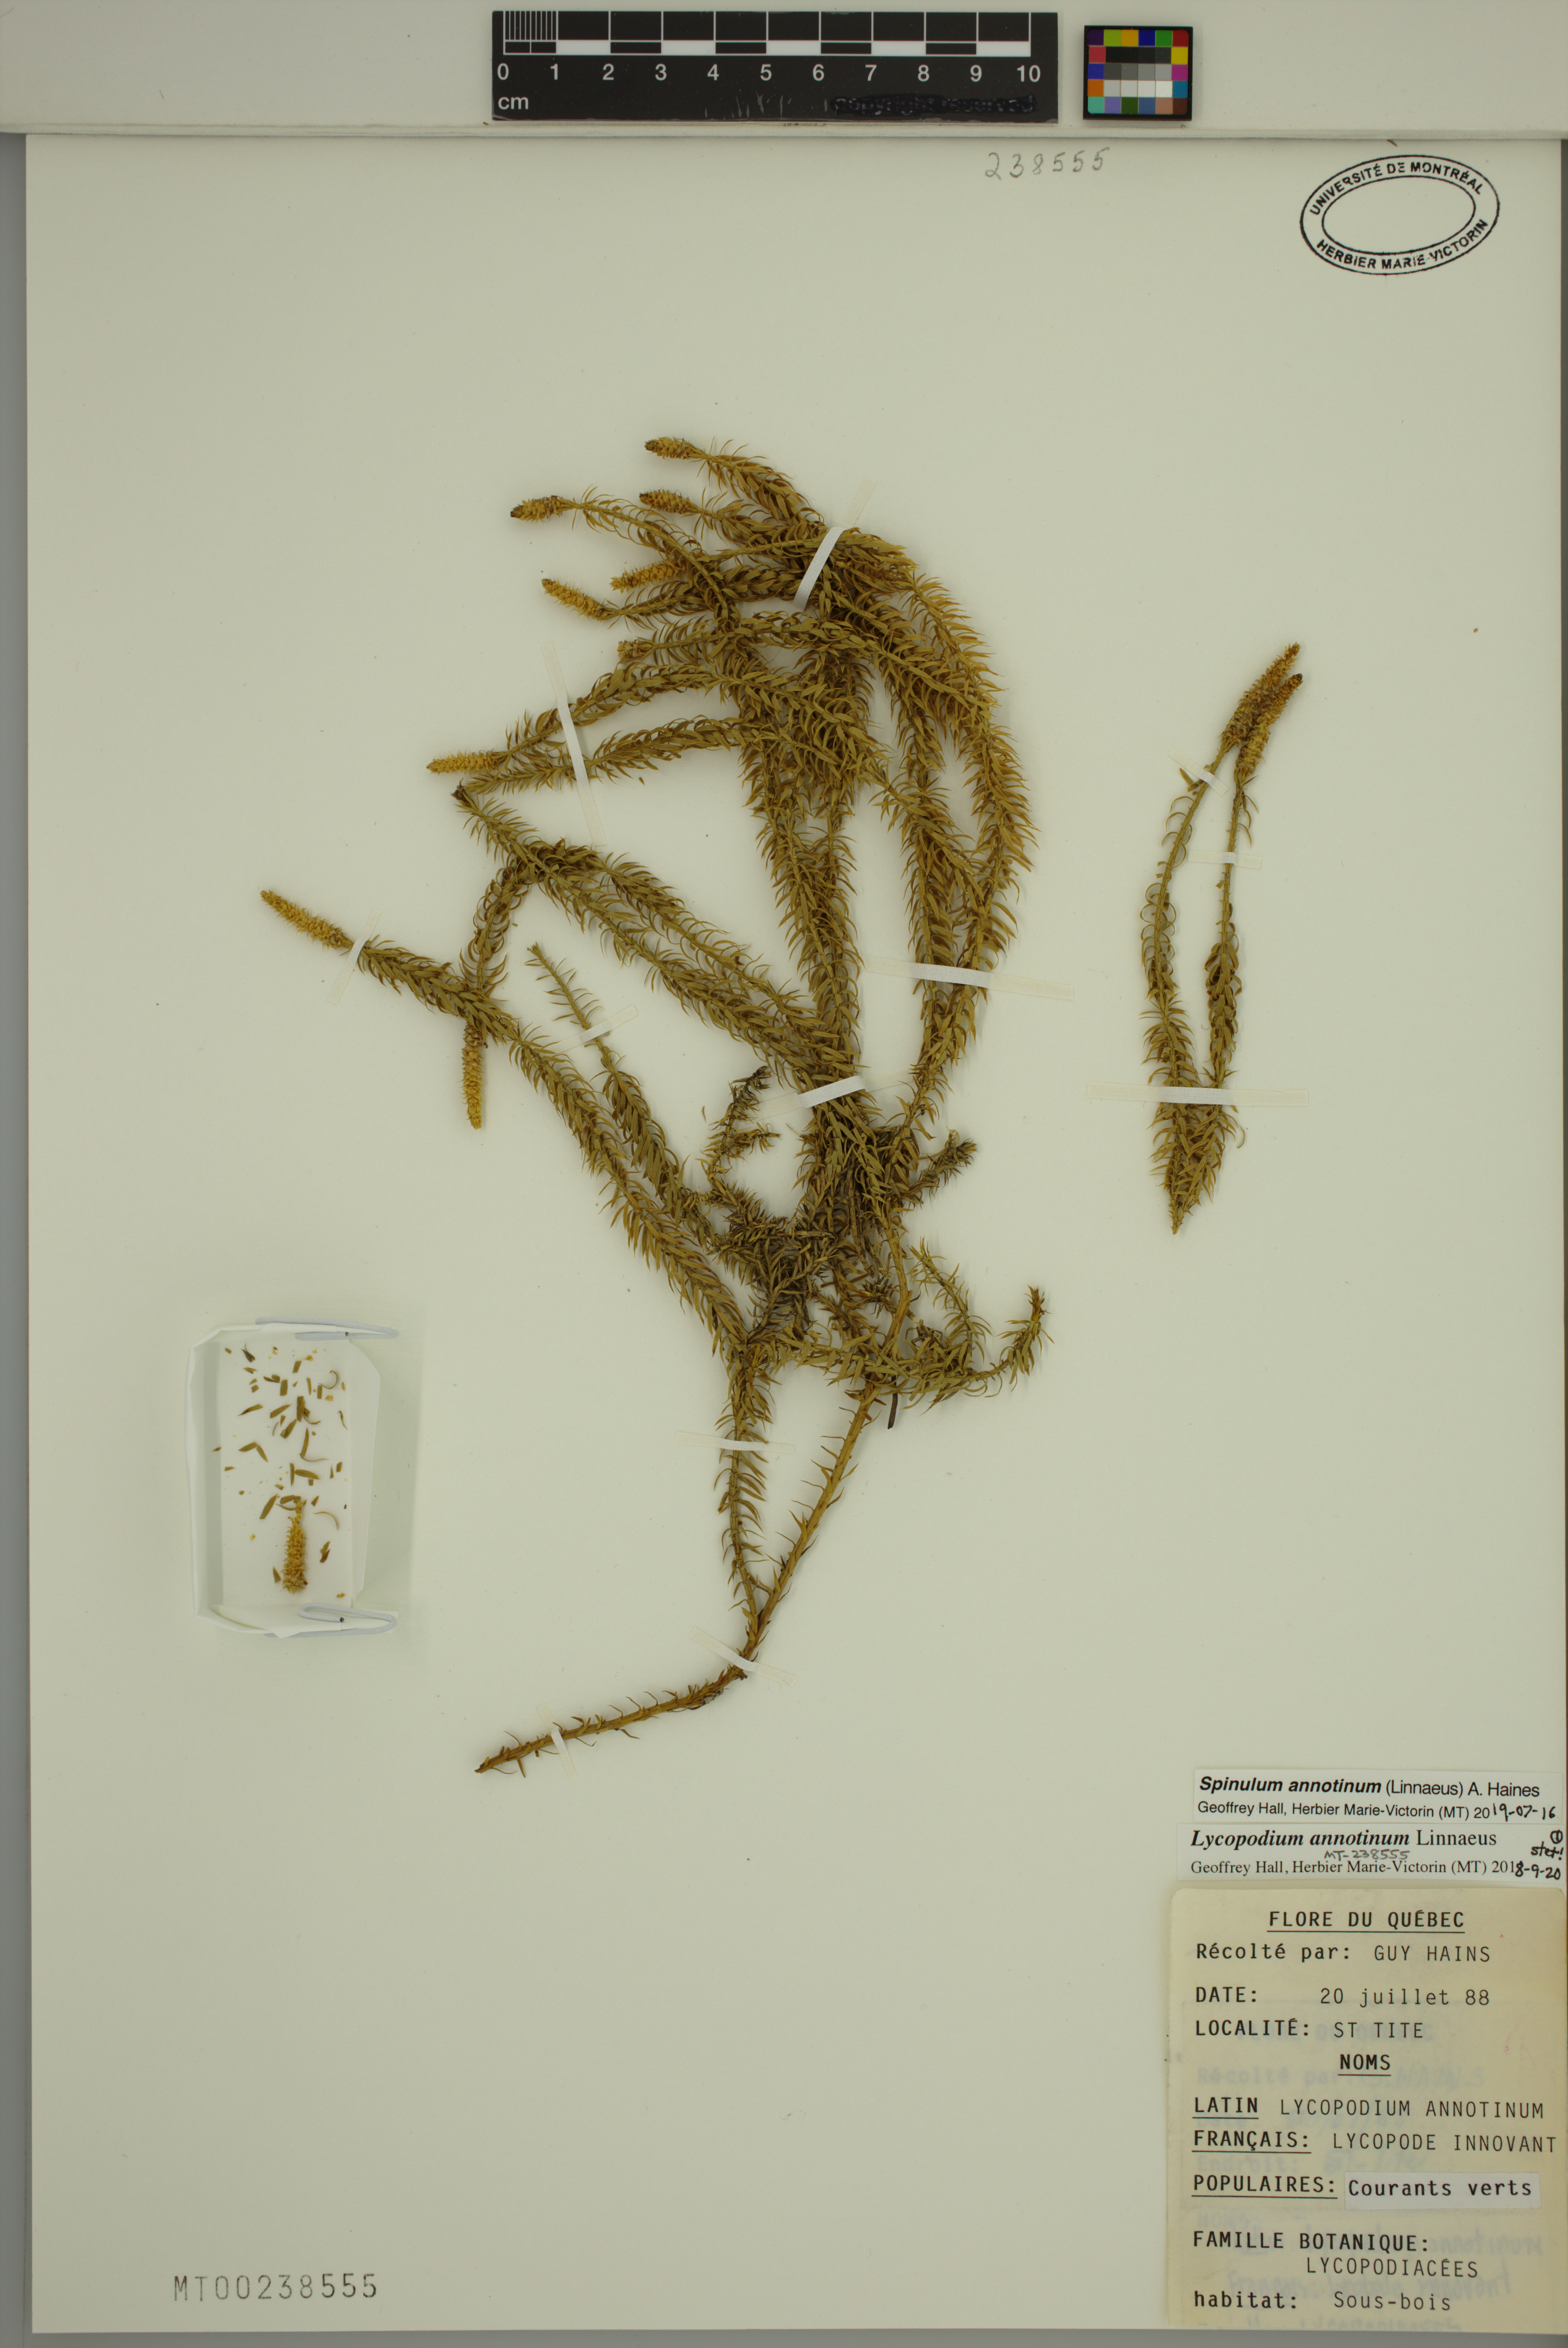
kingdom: Plantae
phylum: Tracheophyta
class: Lycopodiopsida
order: Lycopodiales
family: Lycopodiaceae
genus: Spinulum
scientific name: Spinulum annotinum
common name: Interrupted club-moss
